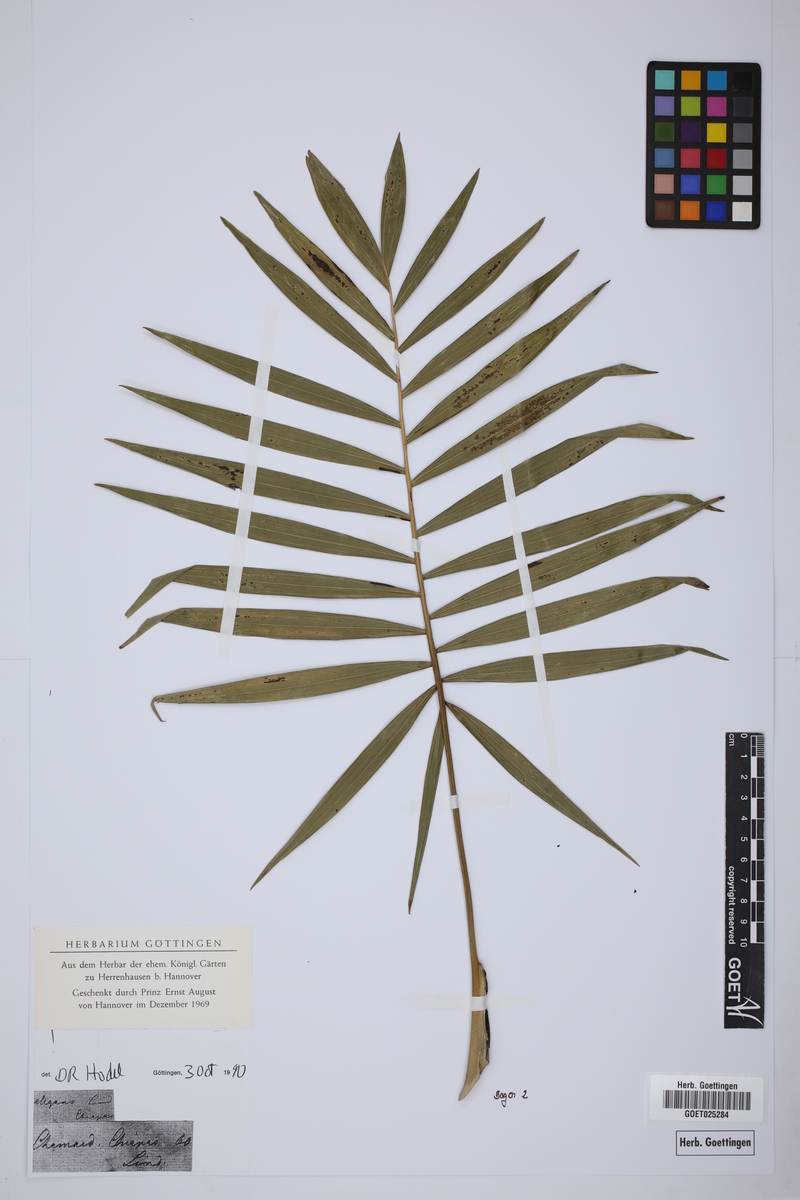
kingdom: Plantae
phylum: Tracheophyta
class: Liliopsida
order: Arecales
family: Arecaceae
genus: Chamaedorea
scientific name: Chamaedorea elegans
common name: Good-luck palm
